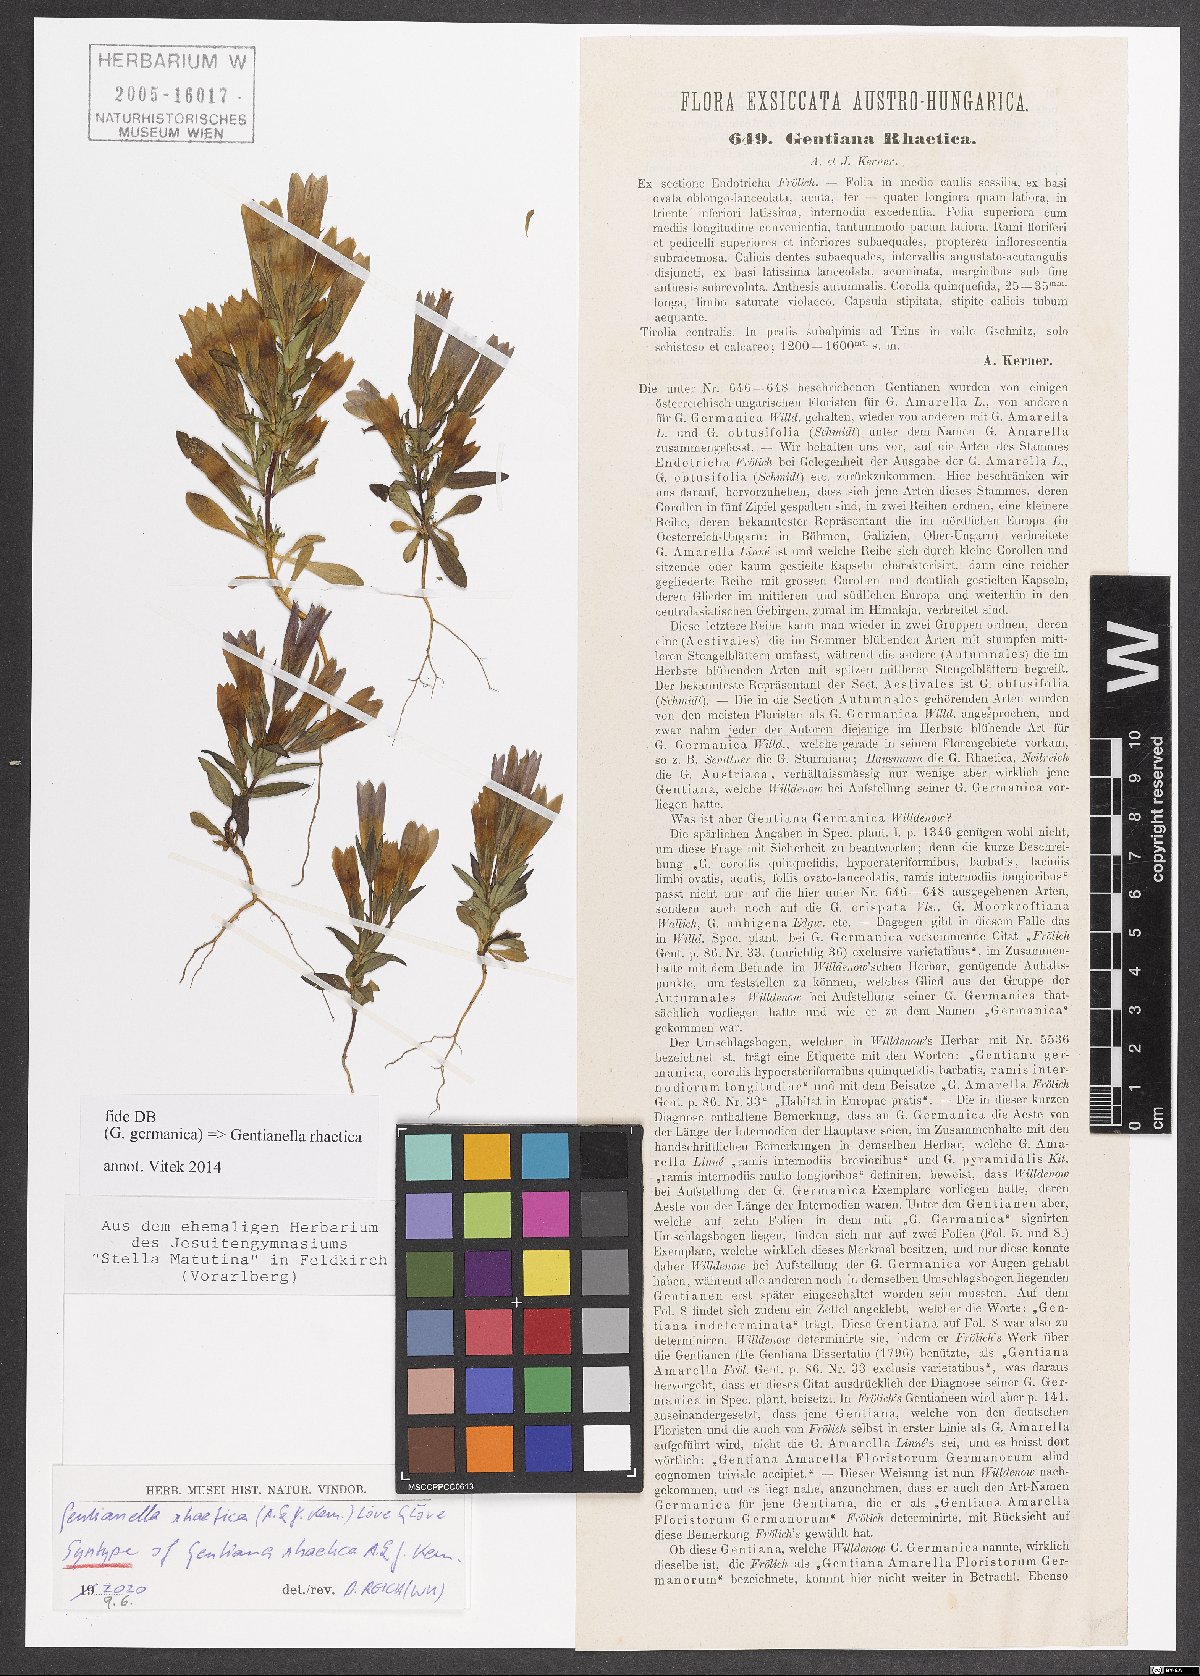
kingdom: Plantae
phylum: Tracheophyta
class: Magnoliopsida
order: Gentianales
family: Gentianaceae
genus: Gentianella
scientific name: Gentianella rhaetica
